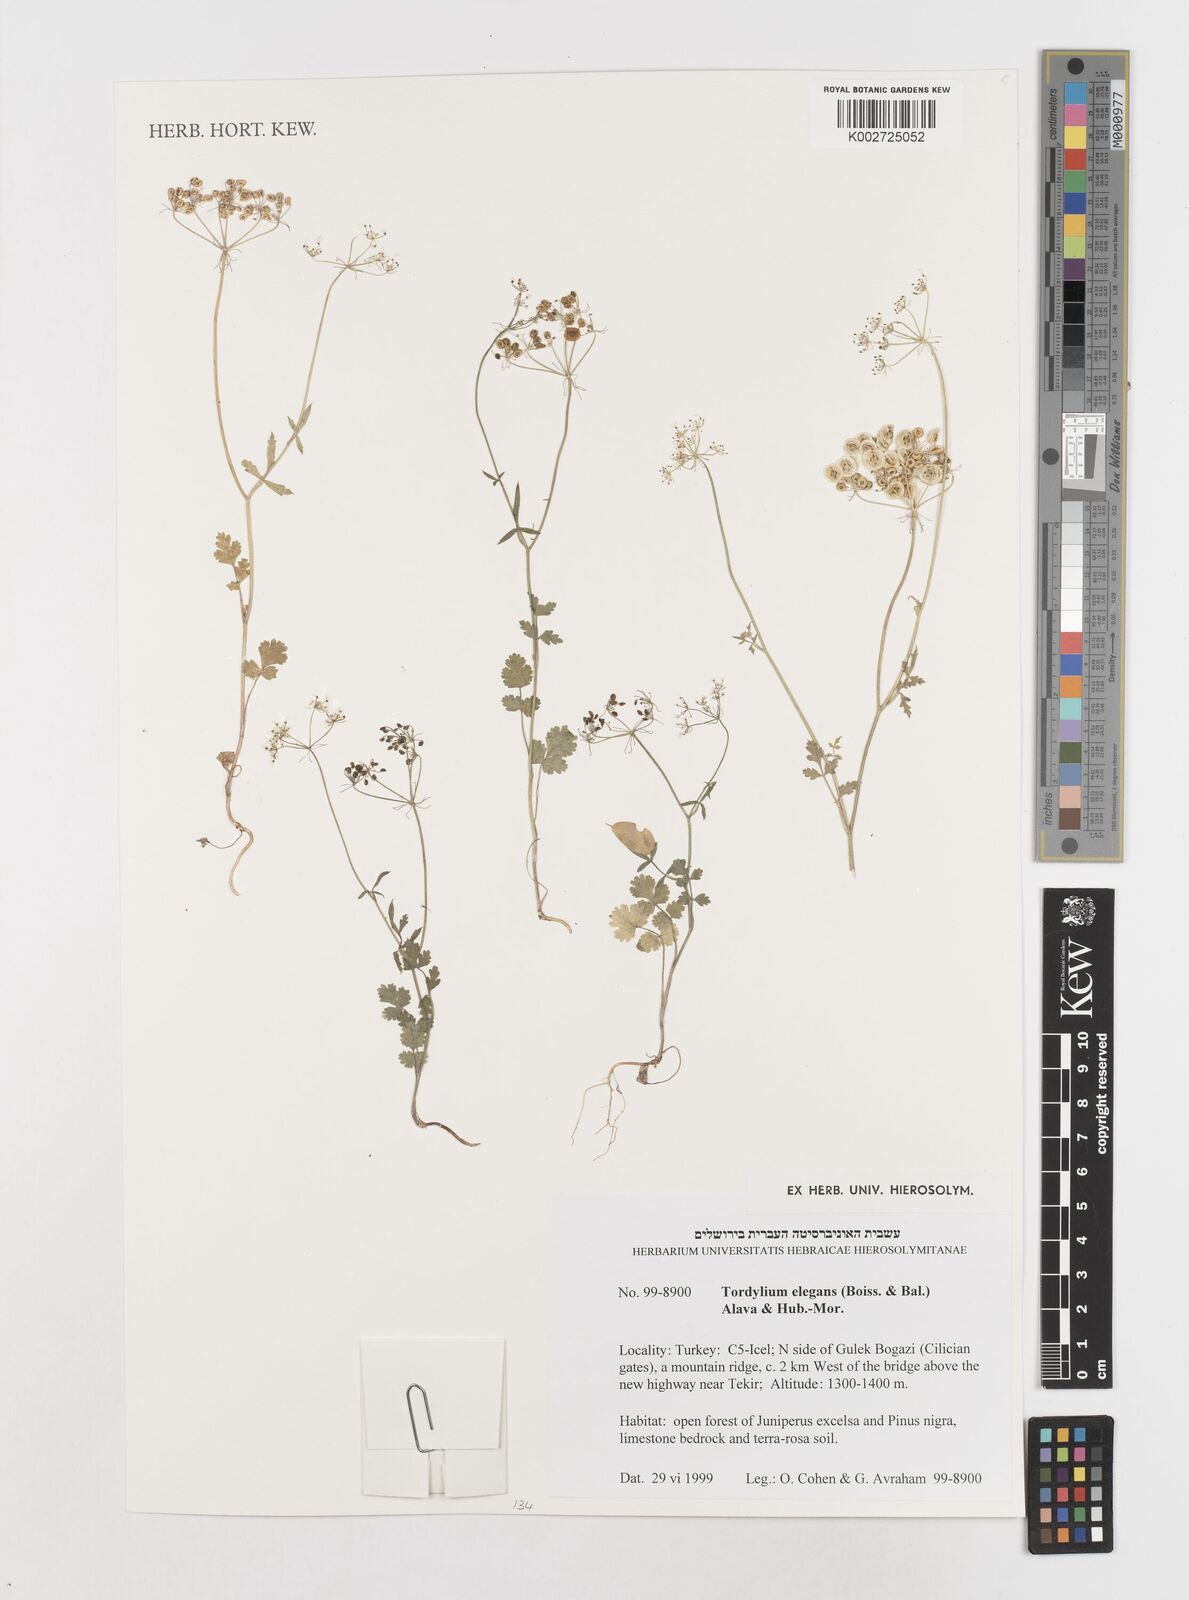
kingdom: Plantae
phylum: Tracheophyta
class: Magnoliopsida
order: Apiales
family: Apiaceae
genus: Ainsworthia
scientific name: Ainsworthia elegans
